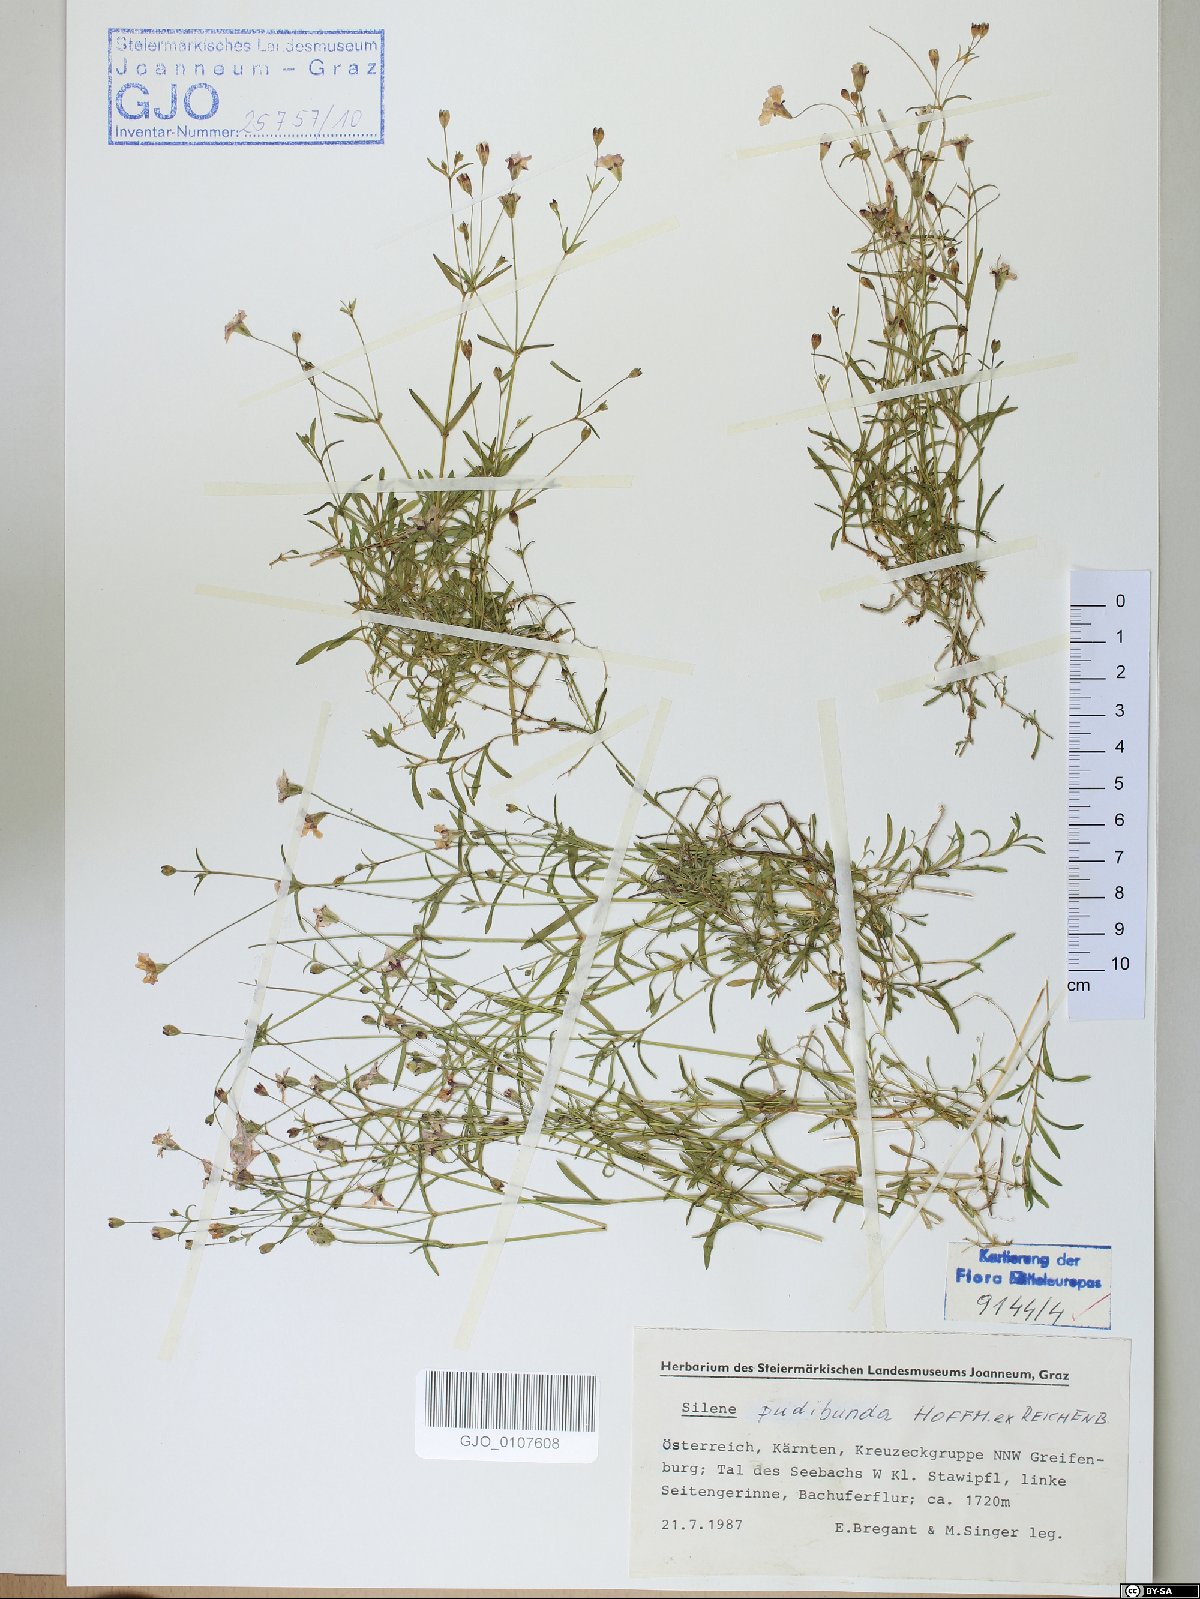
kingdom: Plantae
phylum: Tracheophyta
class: Magnoliopsida
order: Caryophyllales
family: Caryophyllaceae
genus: Heliosperma
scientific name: Heliosperma pudibundum
